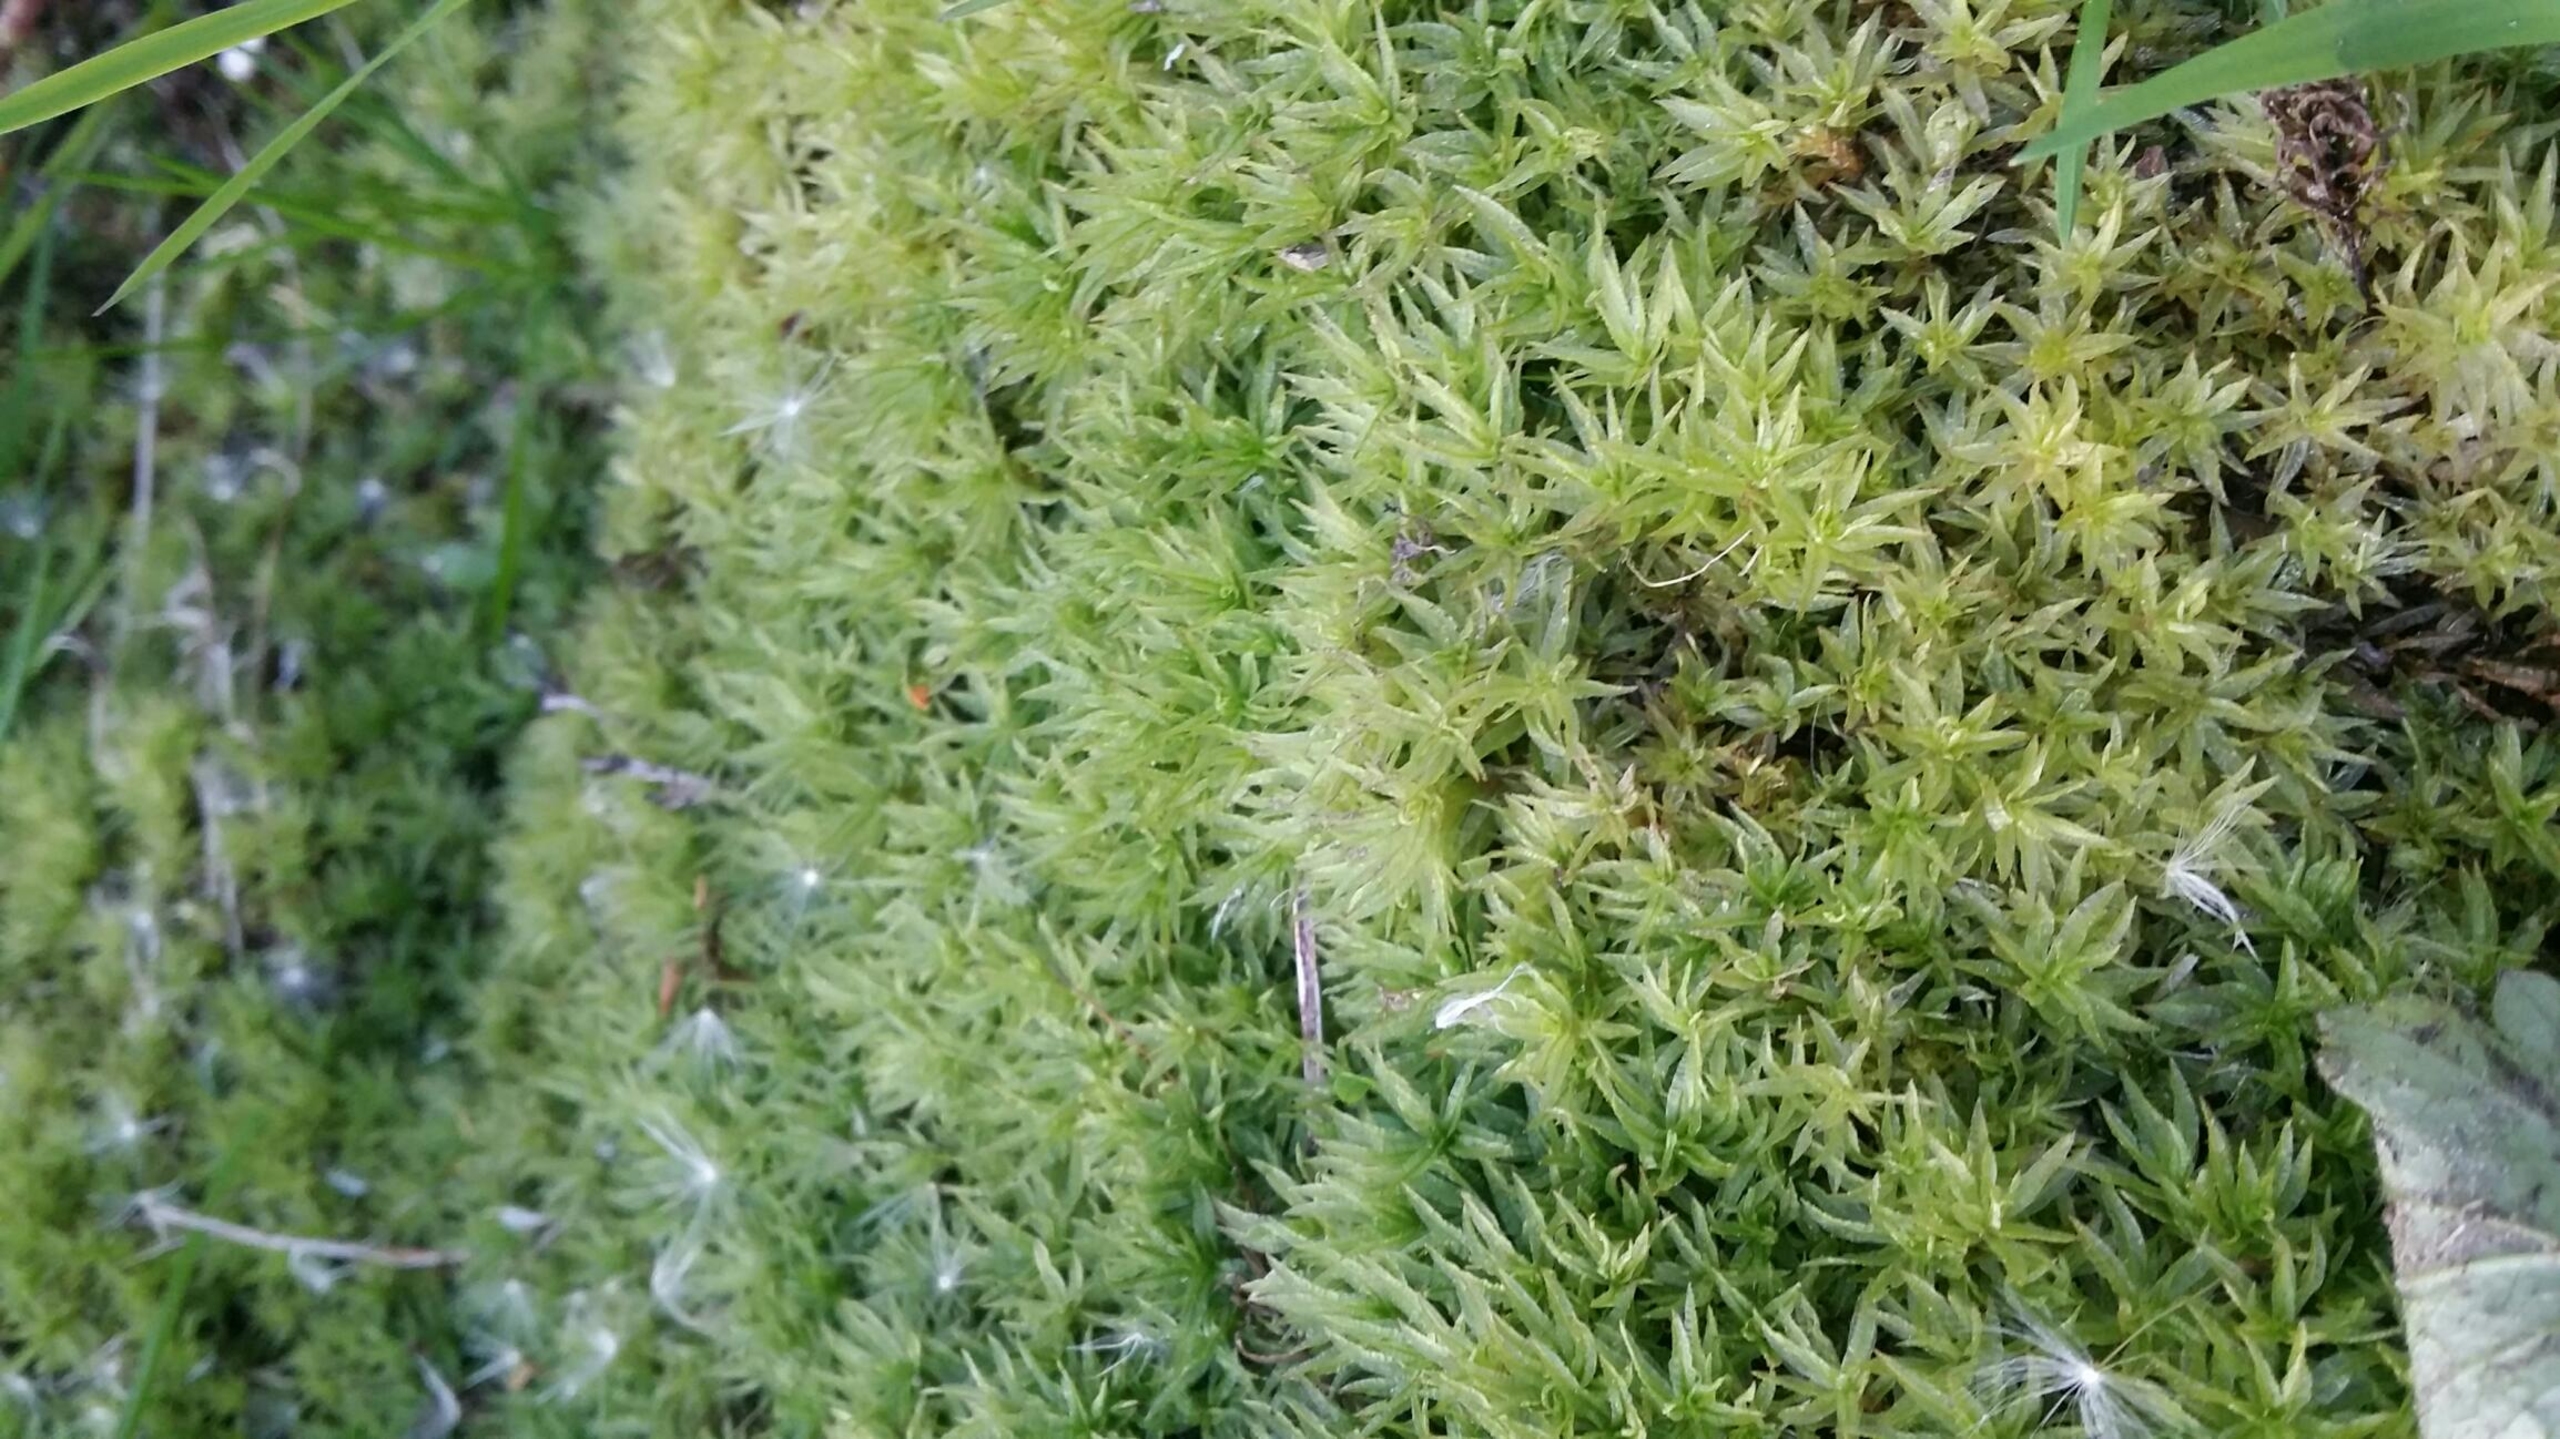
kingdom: Plantae
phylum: Bryophyta
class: Polytrichopsida
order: Polytrichales
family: Polytrichaceae
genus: Atrichum
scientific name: Atrichum undulatum
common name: Bølget katrinemos
